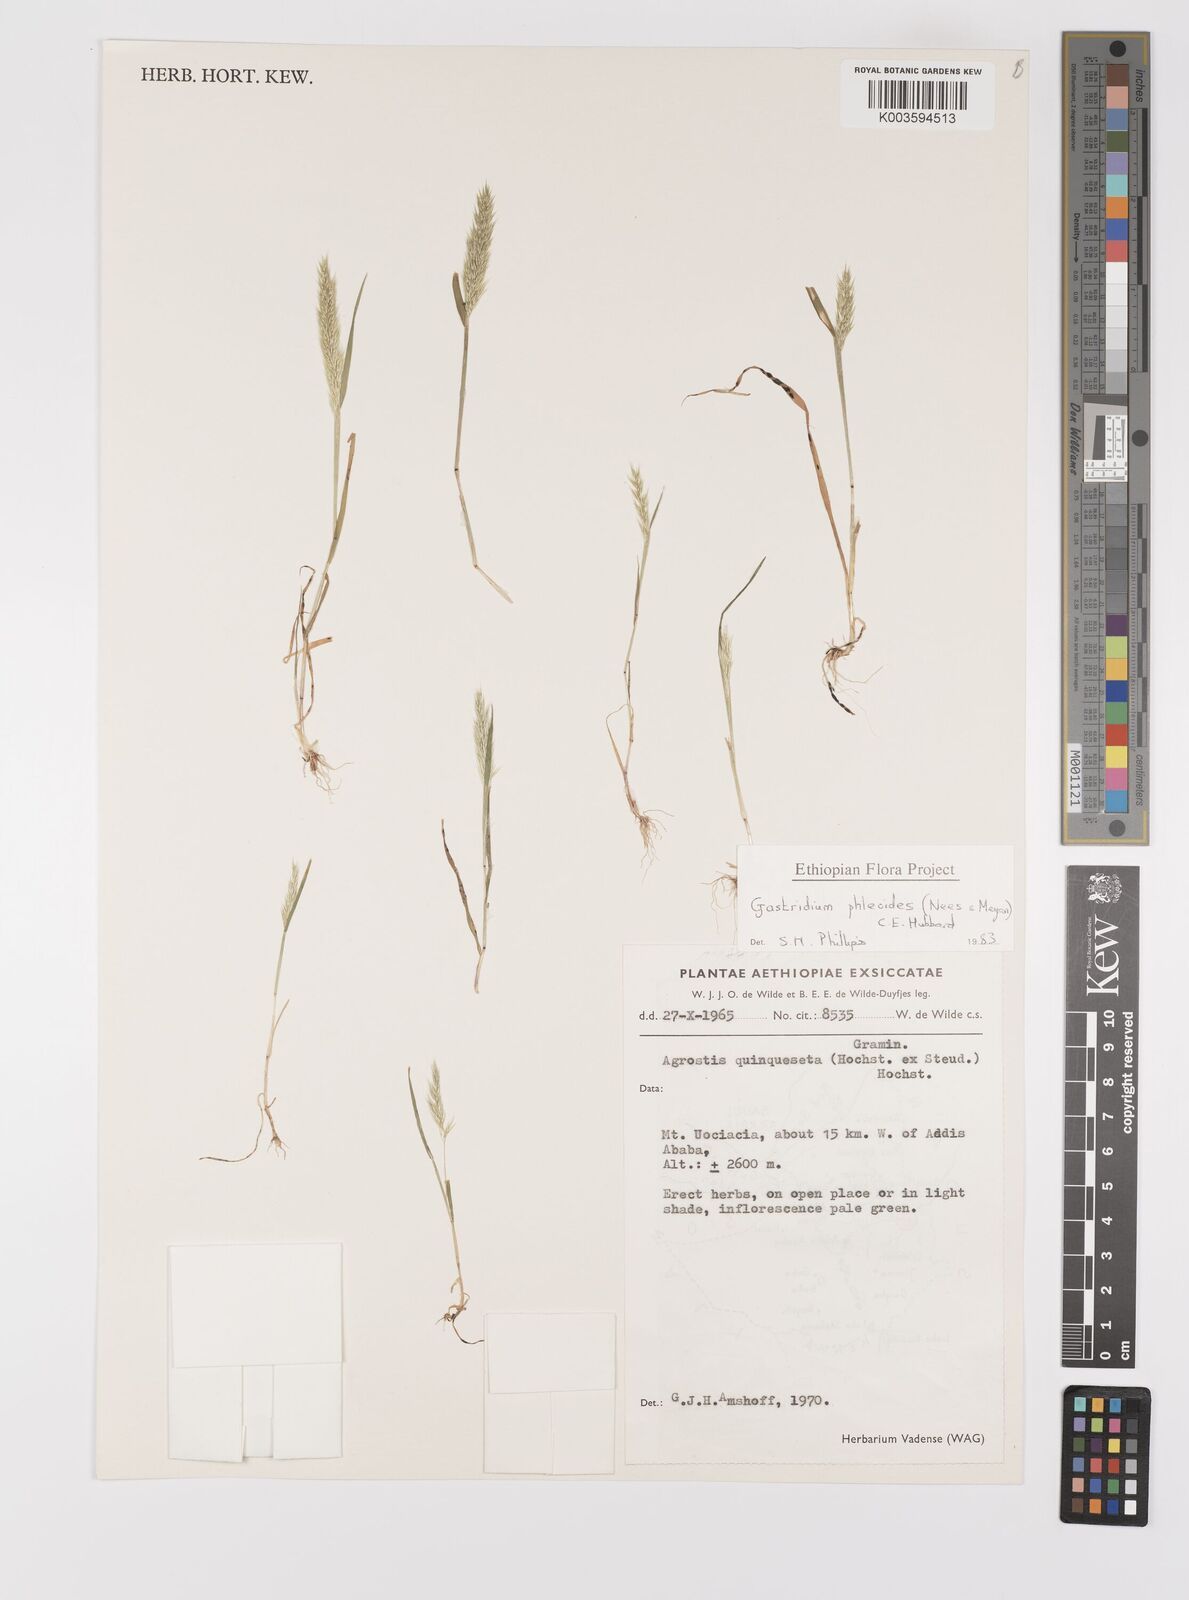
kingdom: Plantae
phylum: Tracheophyta
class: Liliopsida
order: Poales
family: Poaceae
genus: Gastridium
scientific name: Gastridium phleoides
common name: Nit grass
